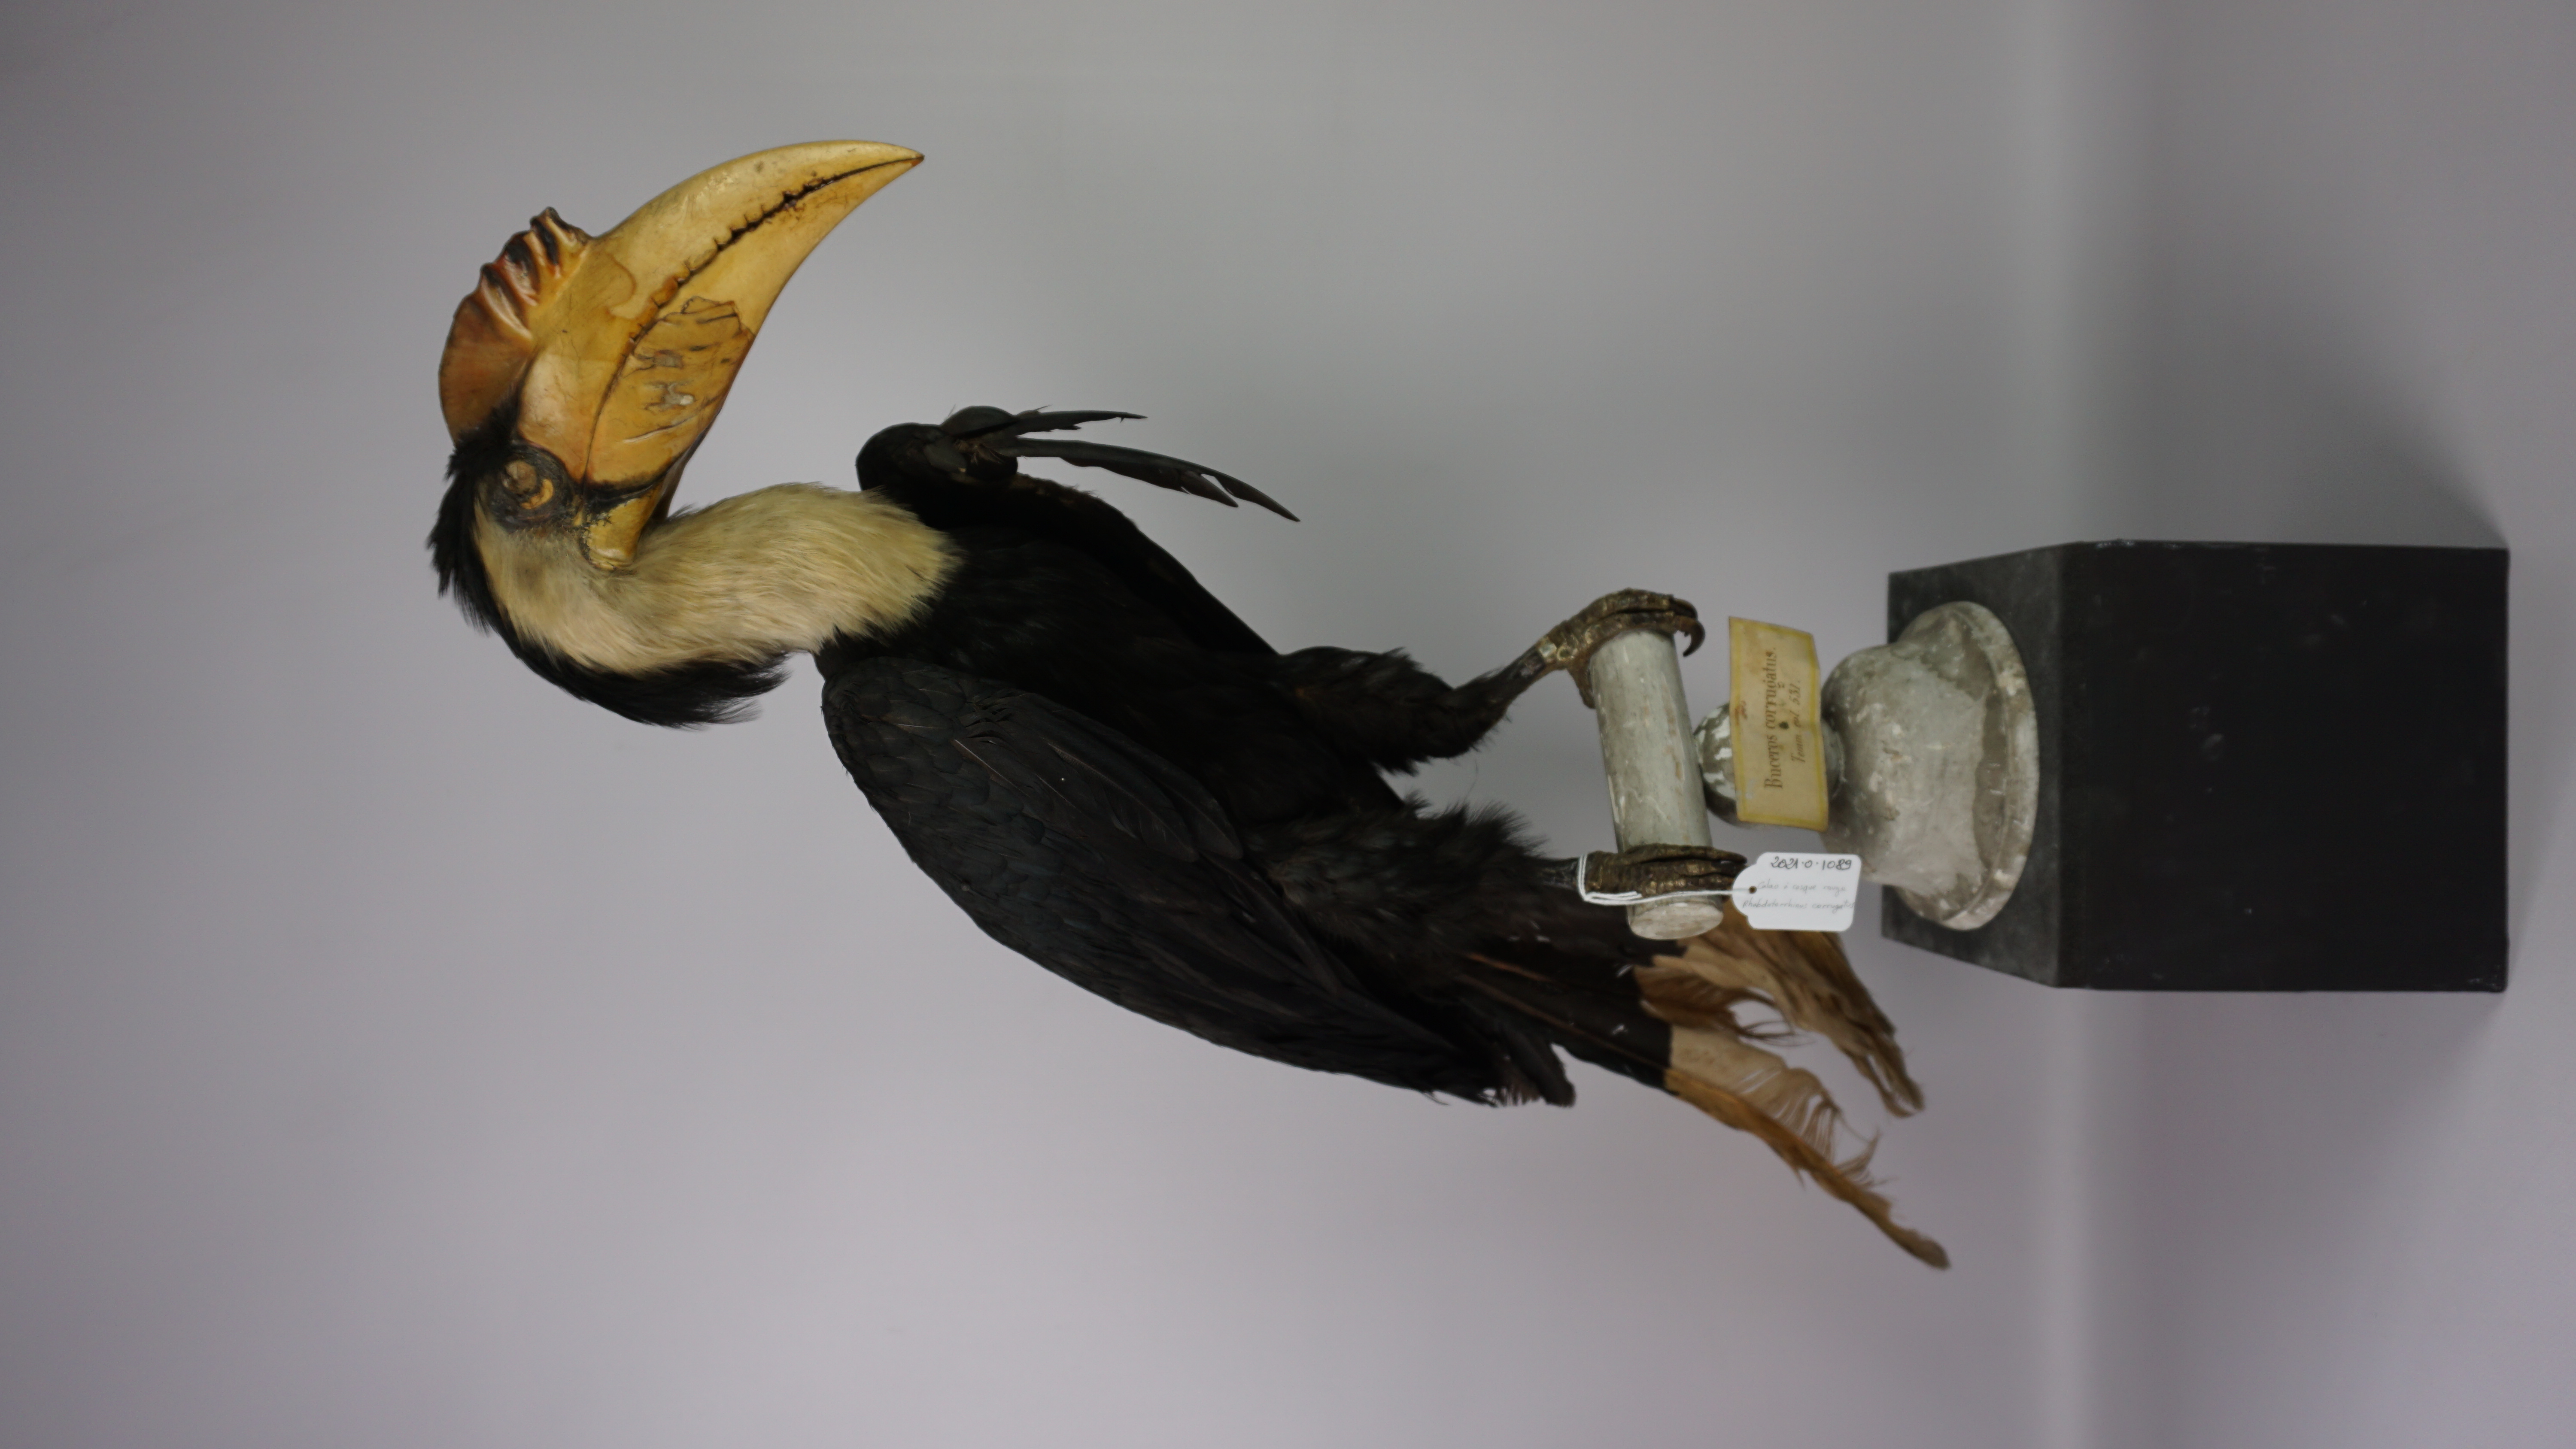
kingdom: Animalia
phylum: Chordata
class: Aves
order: Bucerotiformes
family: Bucerotidae
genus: Rhabdotorrhinus
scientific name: Rhabdotorrhinus corrugatus
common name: Wrinkled hornbill
